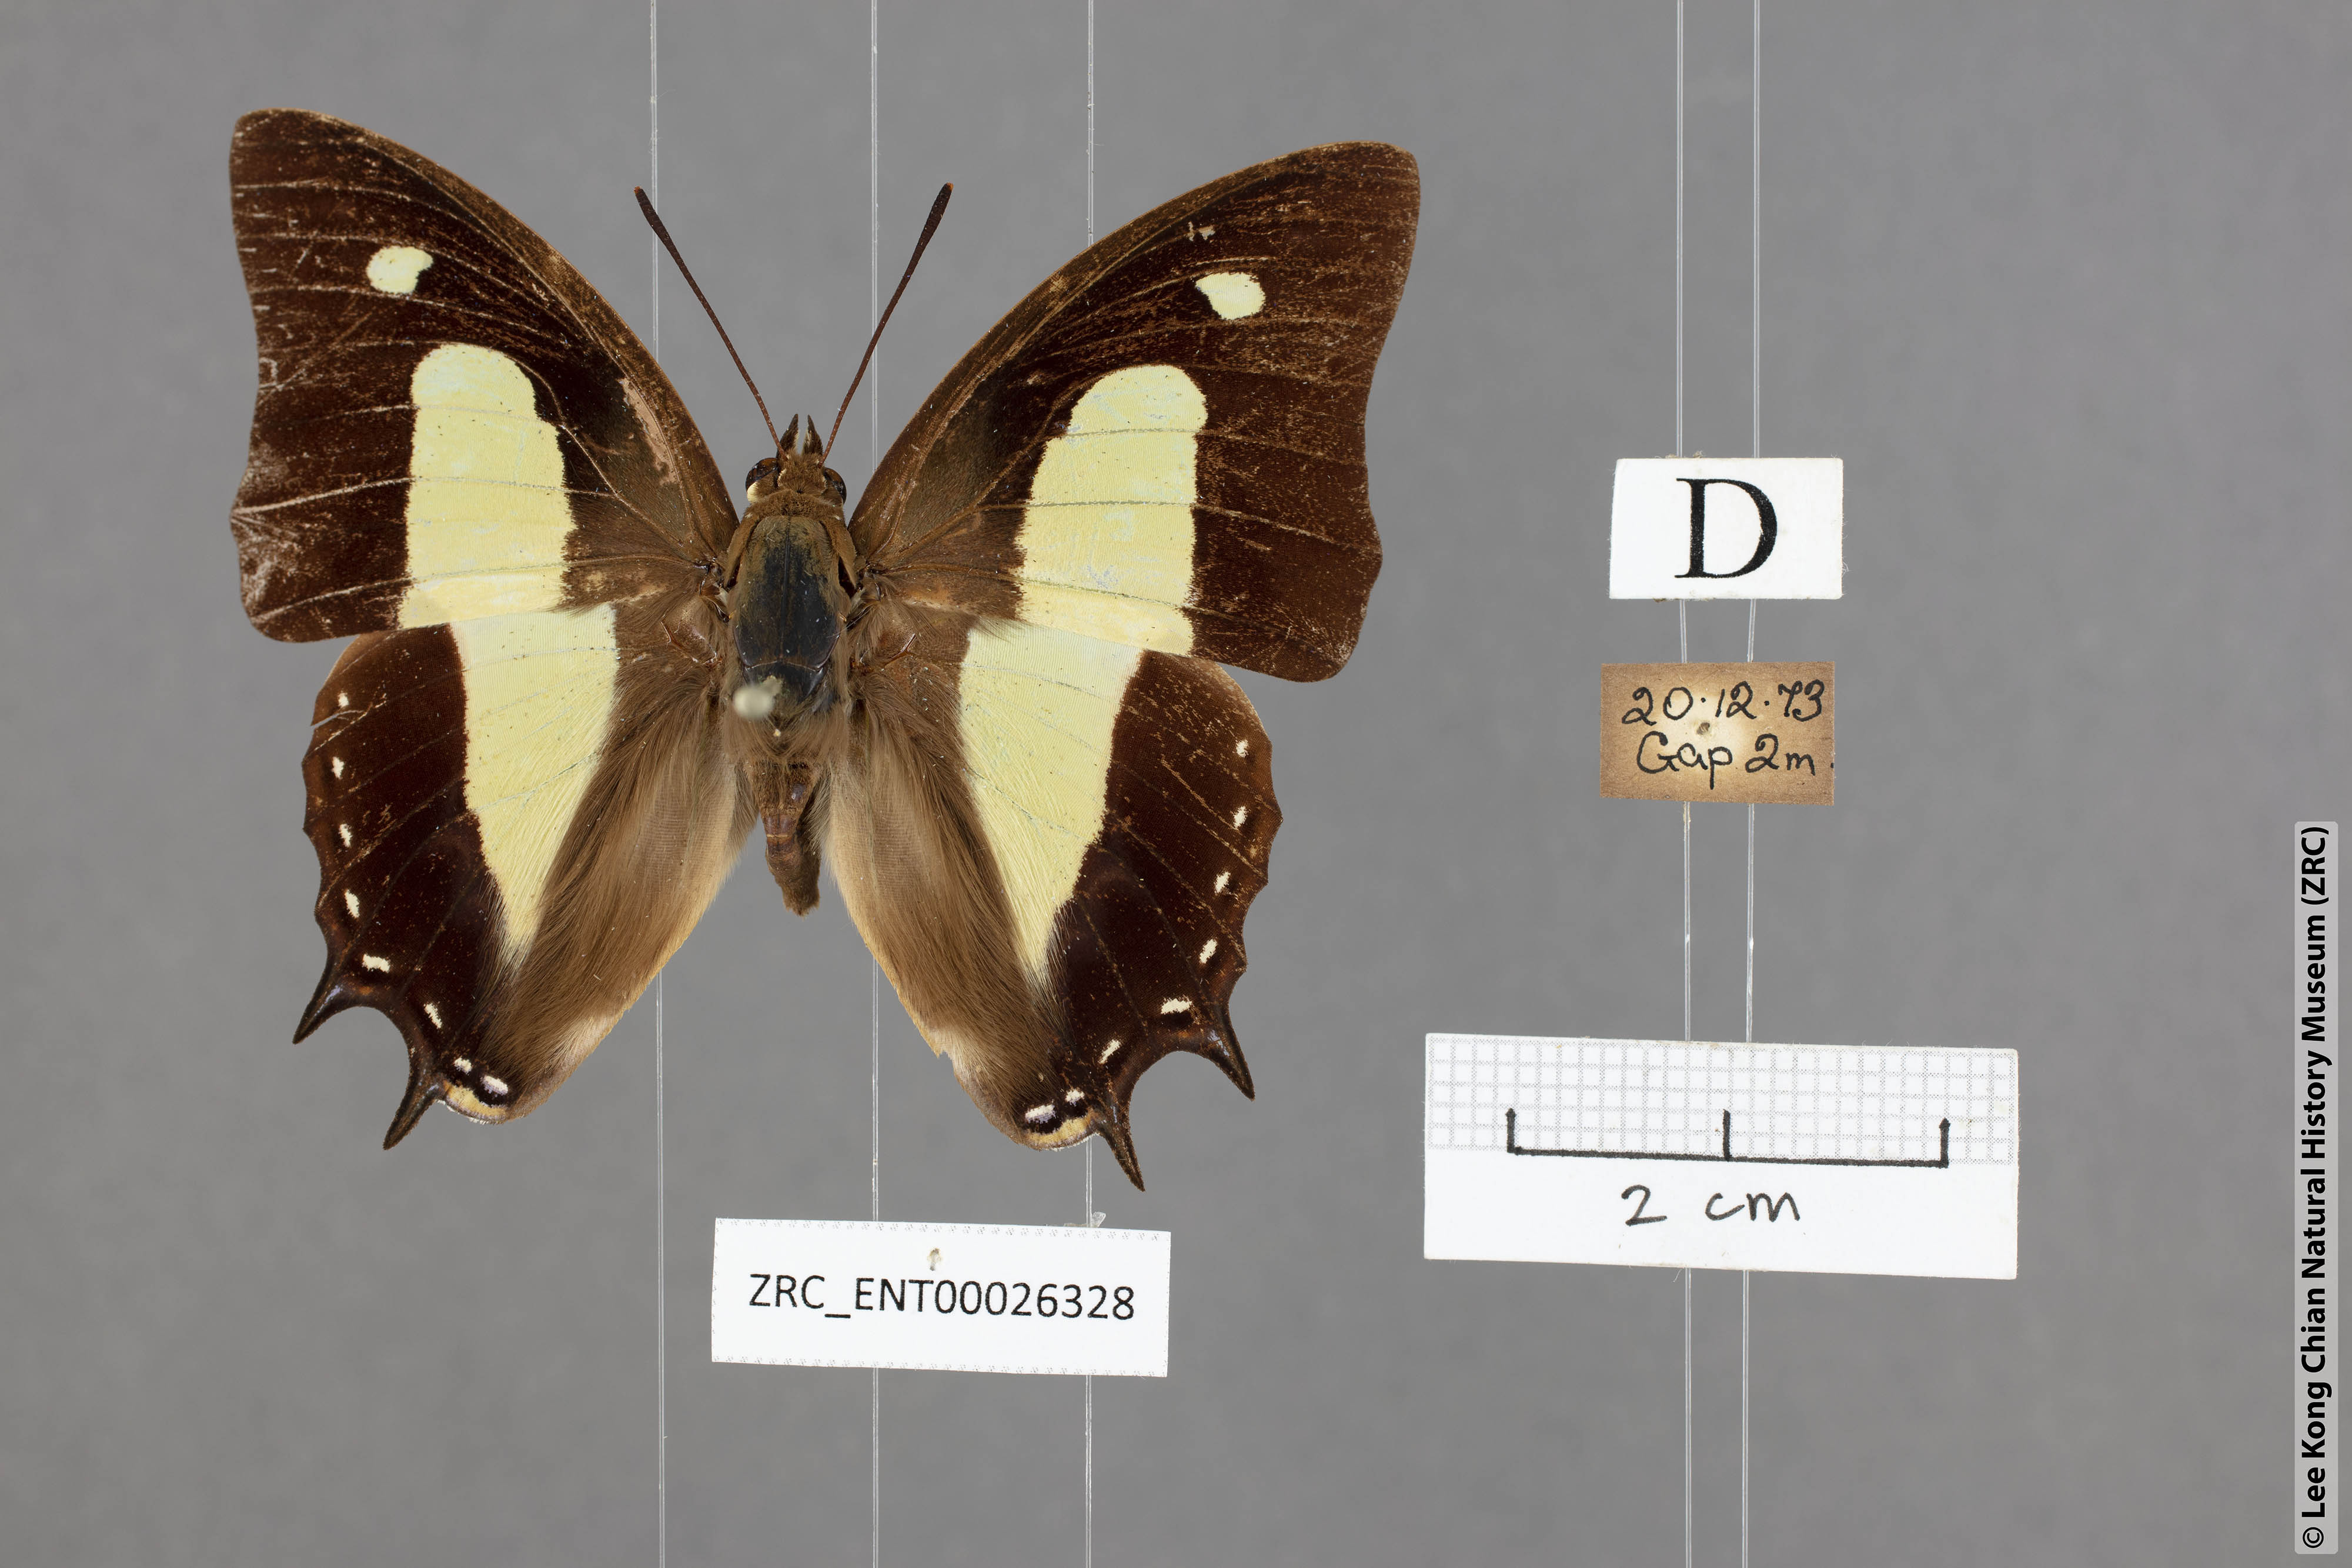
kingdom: Animalia
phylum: Arthropoda
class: Insecta
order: Lepidoptera
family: Nymphalidae
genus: Polyura
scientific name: Polyura athamas
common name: Common nawab
